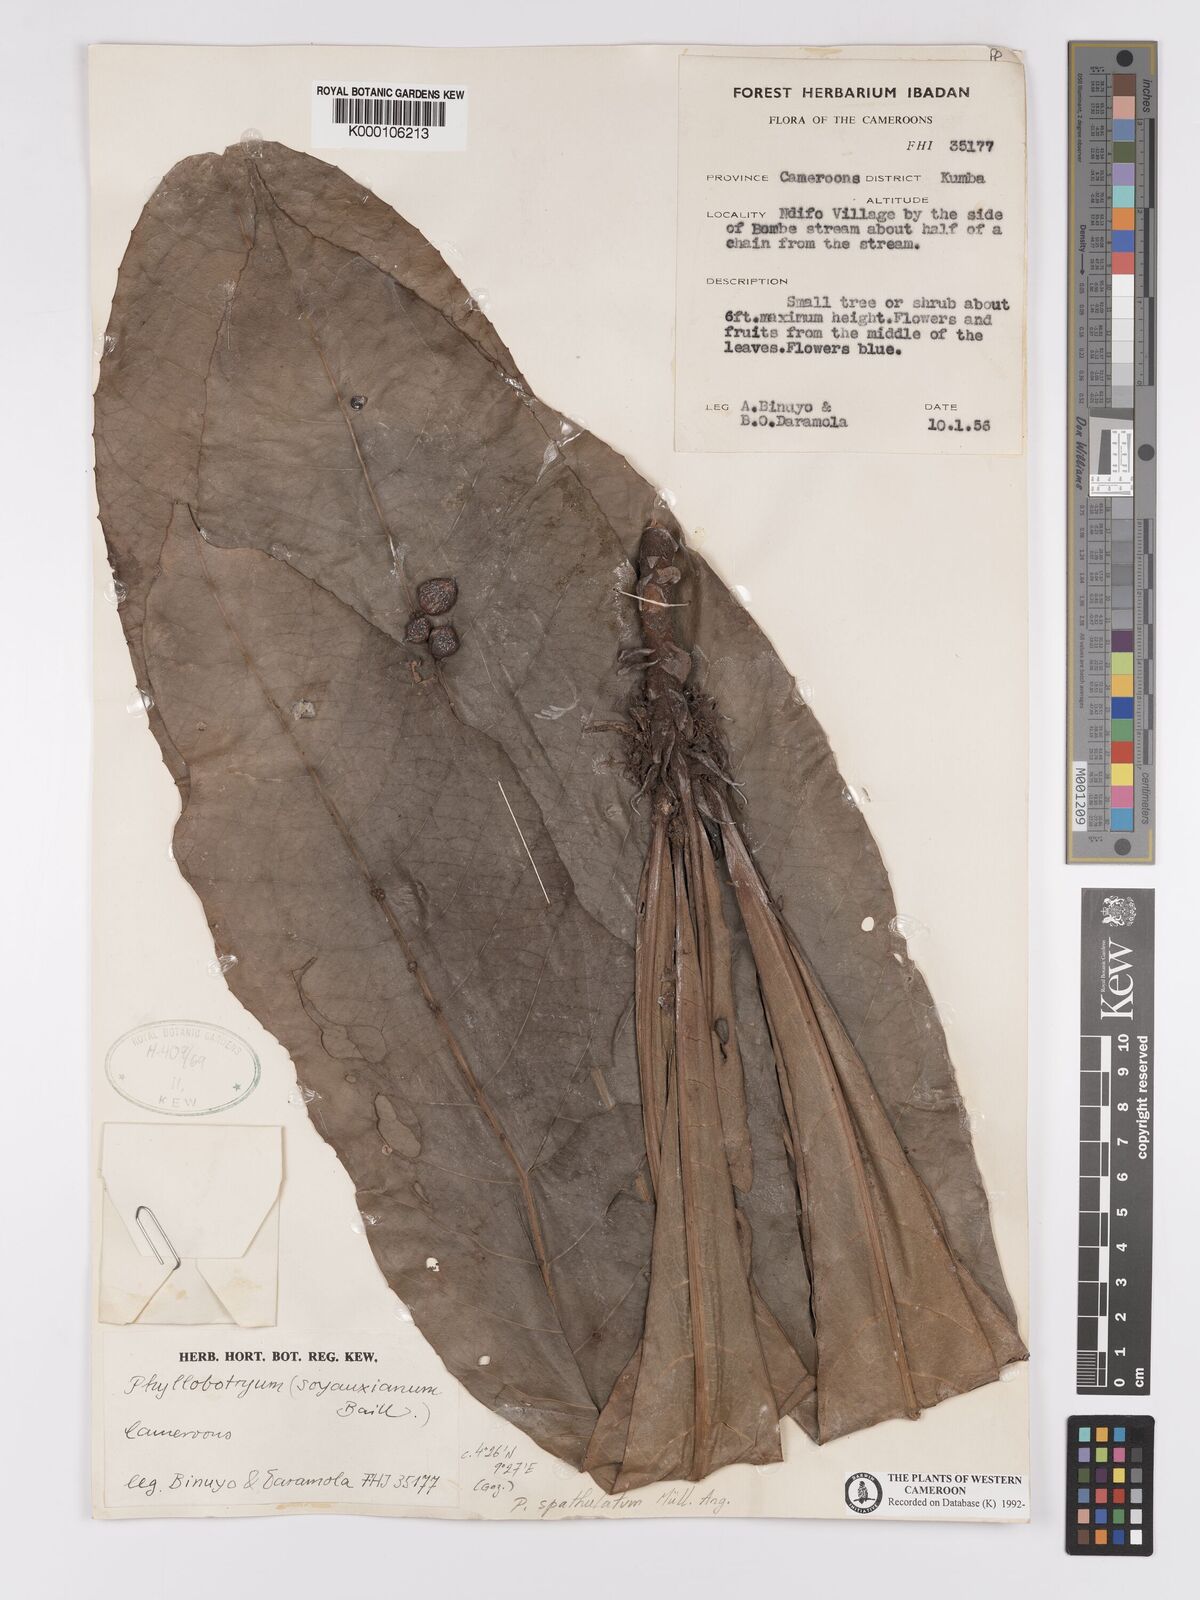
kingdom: Plantae
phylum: Tracheophyta
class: Magnoliopsida
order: Malpighiales
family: Salicaceae
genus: Phyllobotryon
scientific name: Phyllobotryon
